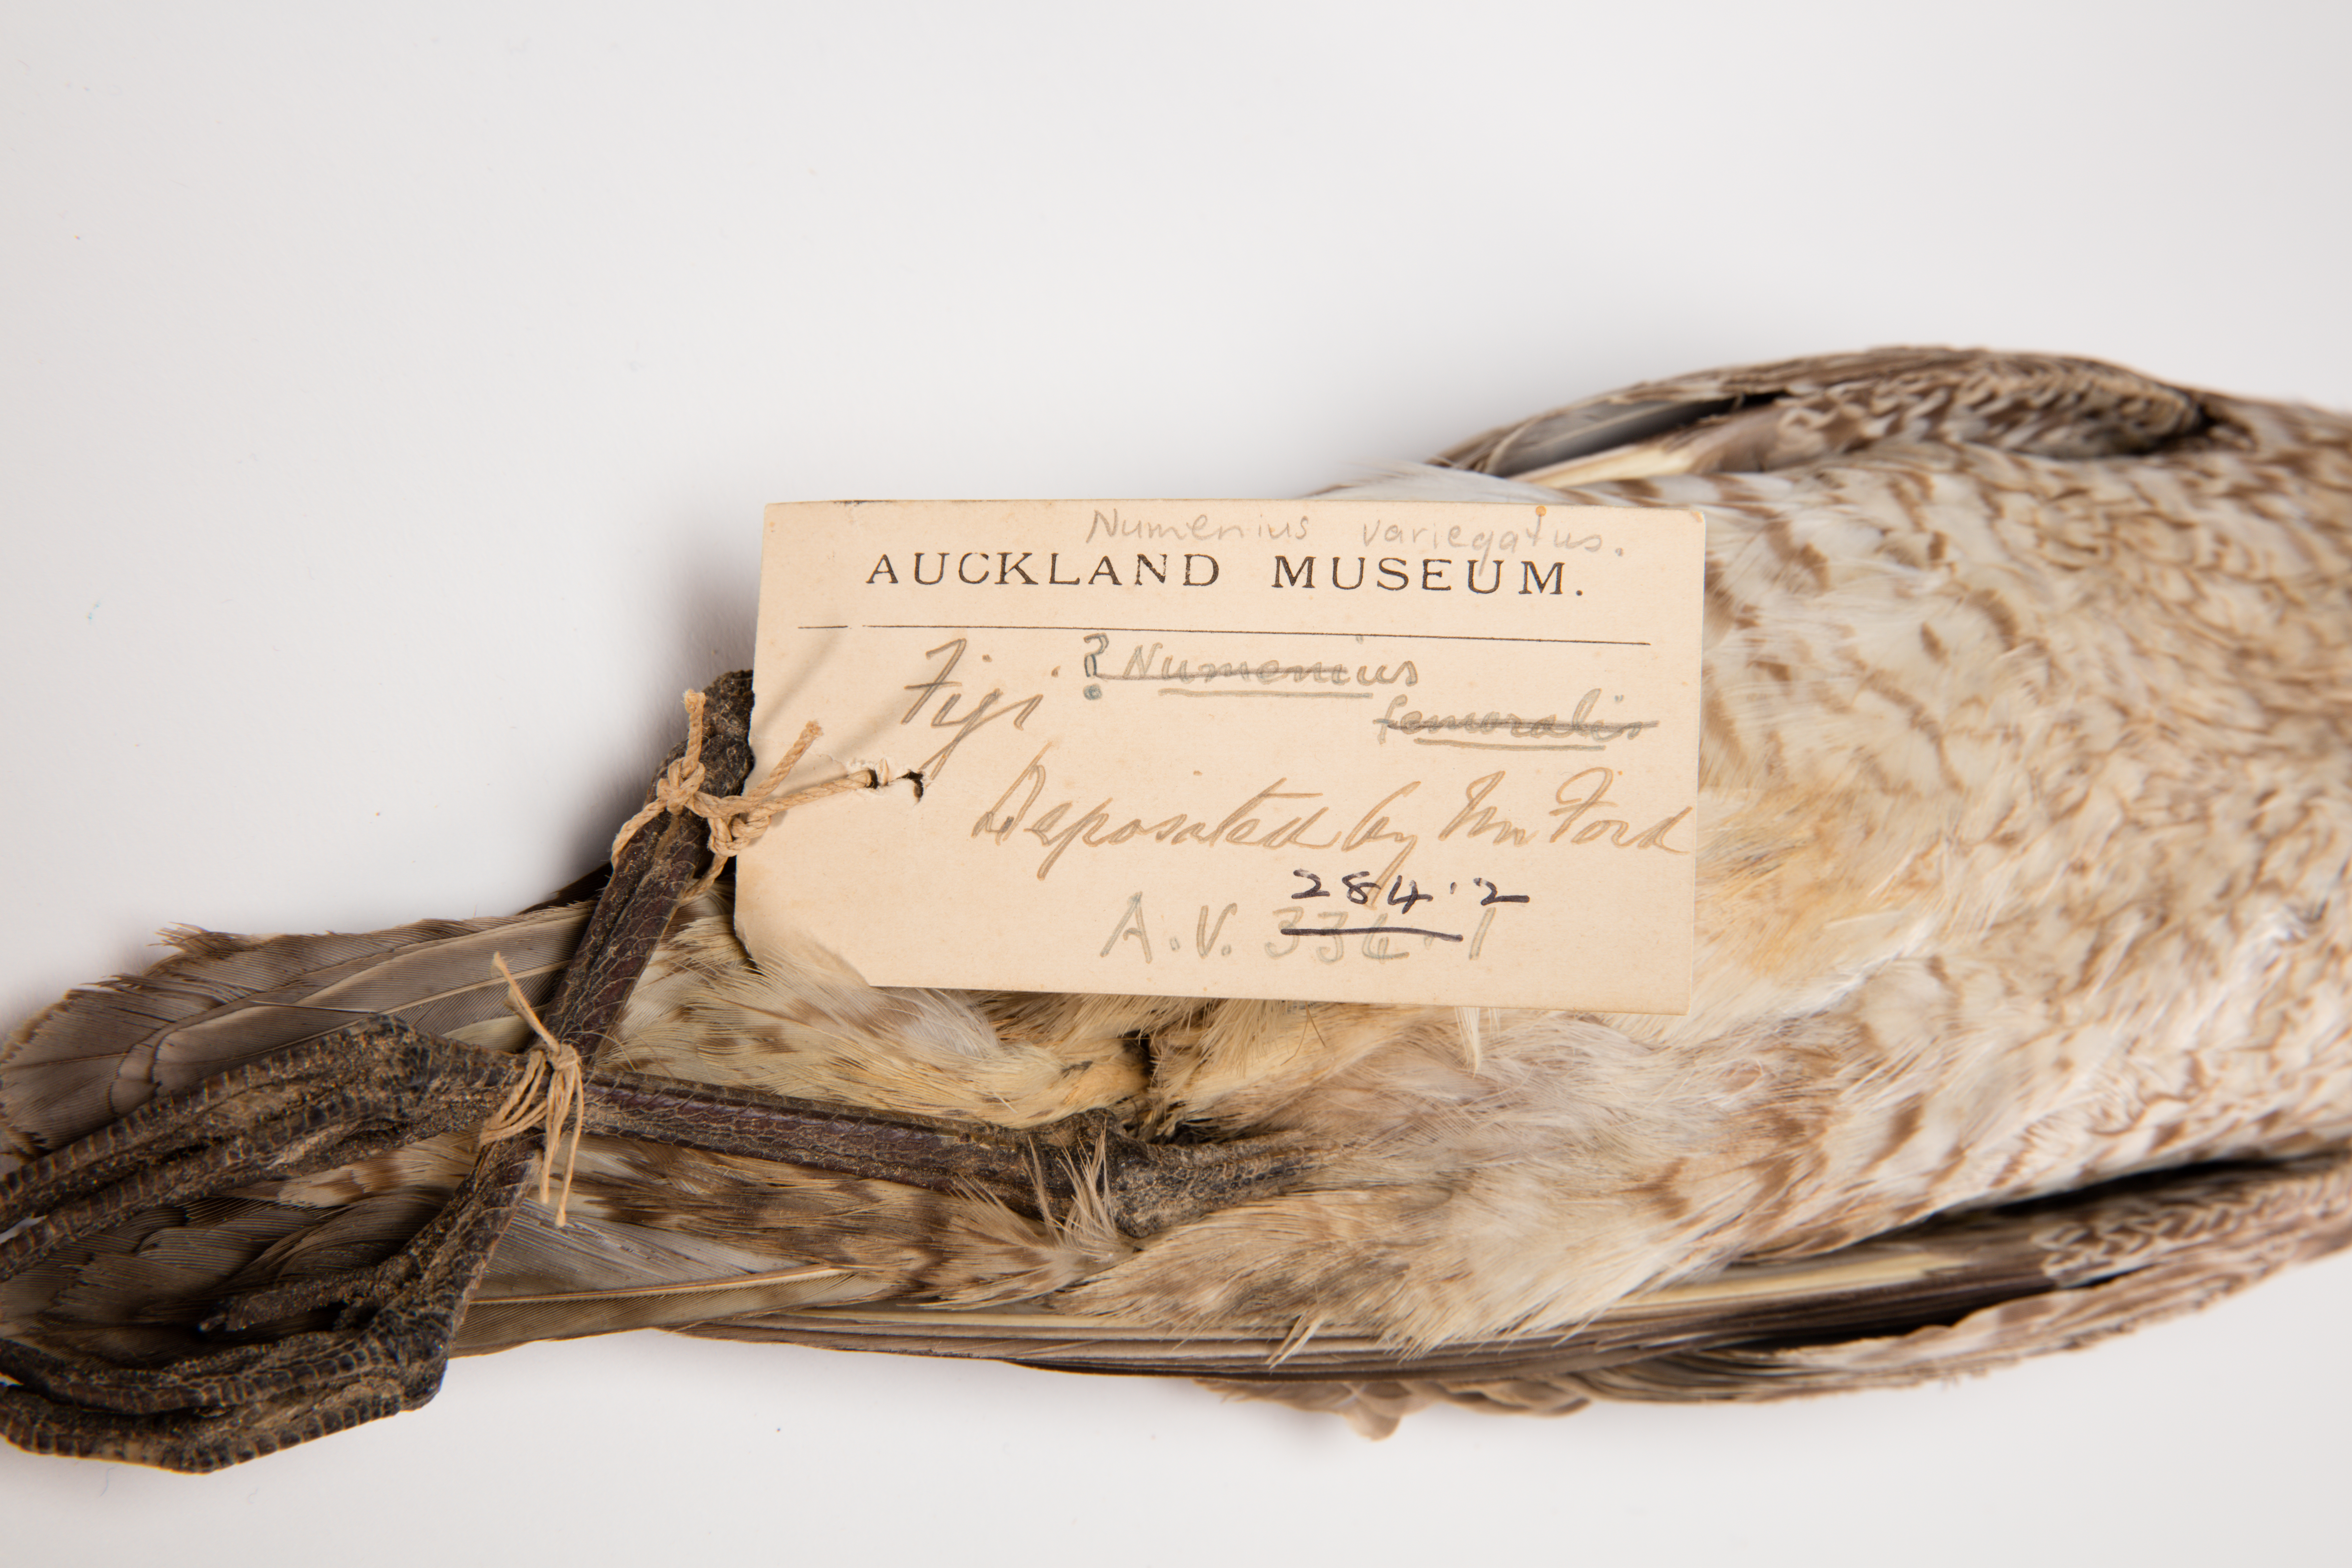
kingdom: Animalia
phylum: Chordata
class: Aves
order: Charadriiformes
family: Scolopacidae
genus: Numenius
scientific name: Numenius phaeopus
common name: Whimbrel
